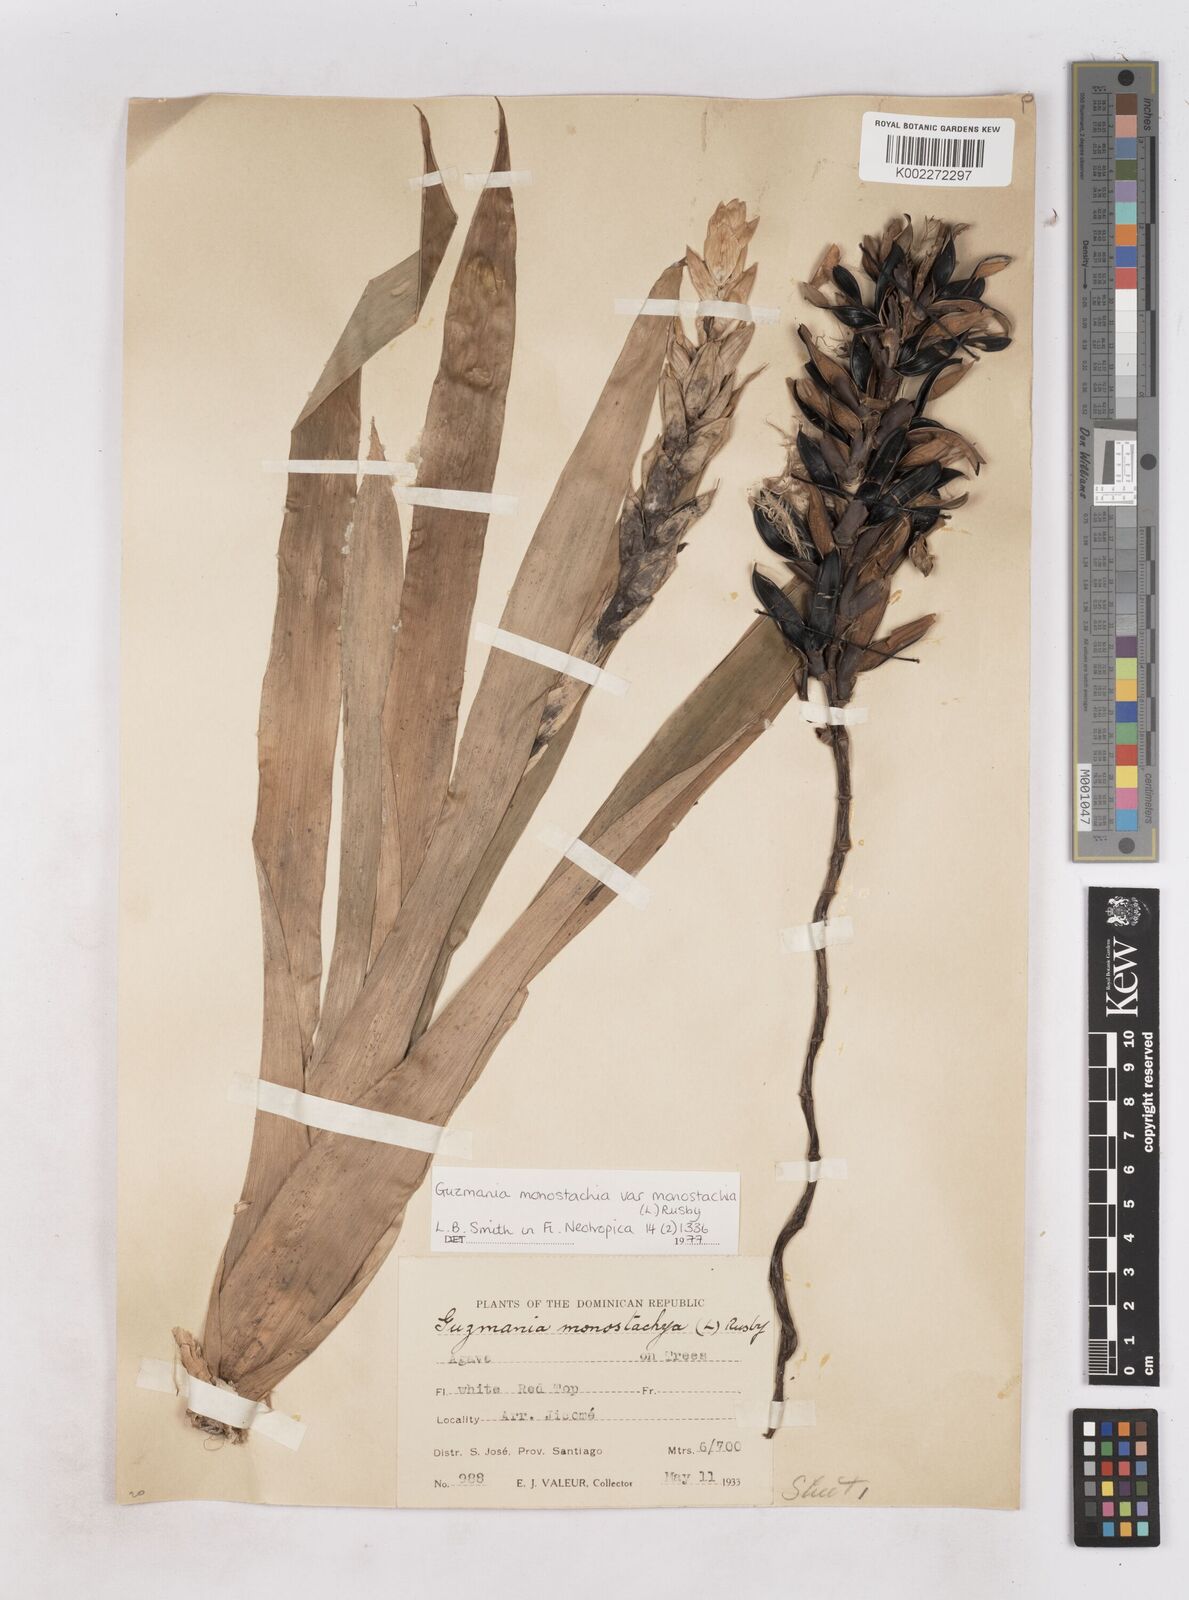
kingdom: Plantae
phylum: Tracheophyta
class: Liliopsida
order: Poales
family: Bromeliaceae
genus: Guzmania
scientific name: Guzmania monostachia
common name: West indian tufted airplant
